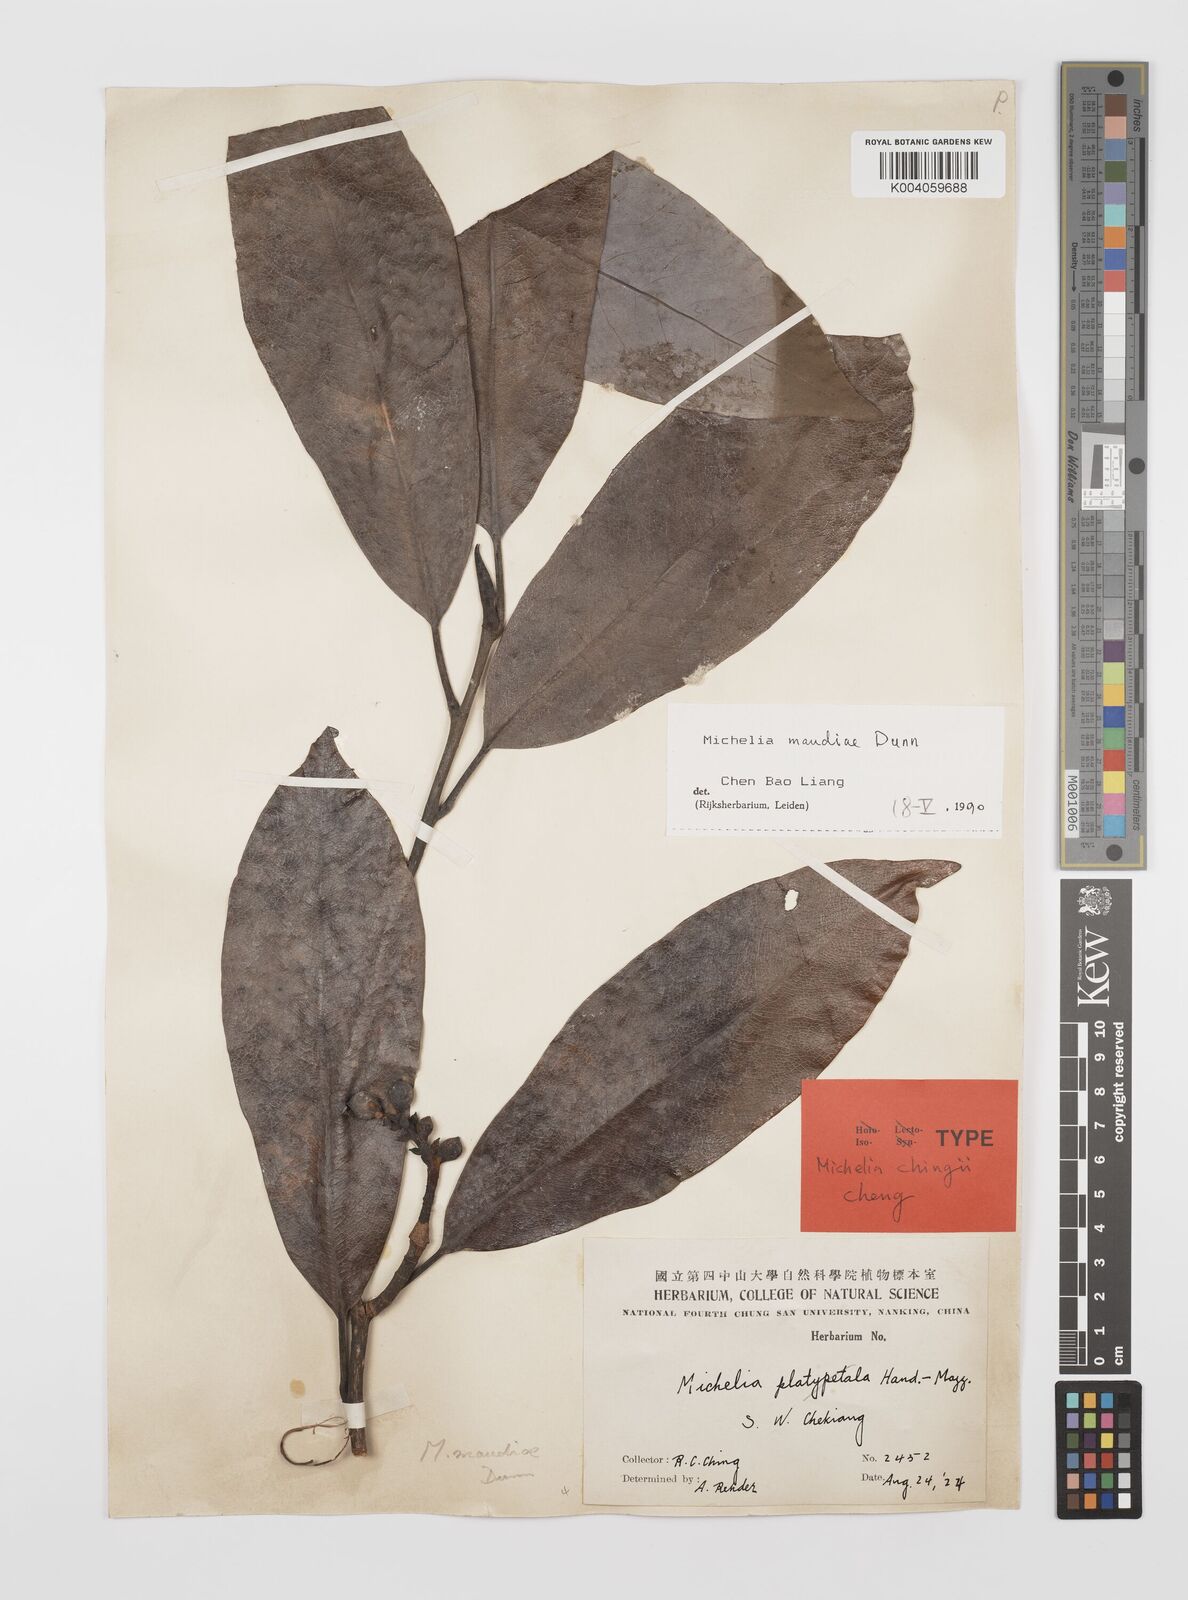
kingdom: Plantae
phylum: Tracheophyta
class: Magnoliopsida
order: Magnoliales
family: Magnoliaceae
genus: Magnolia
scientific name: Magnolia maudiae
